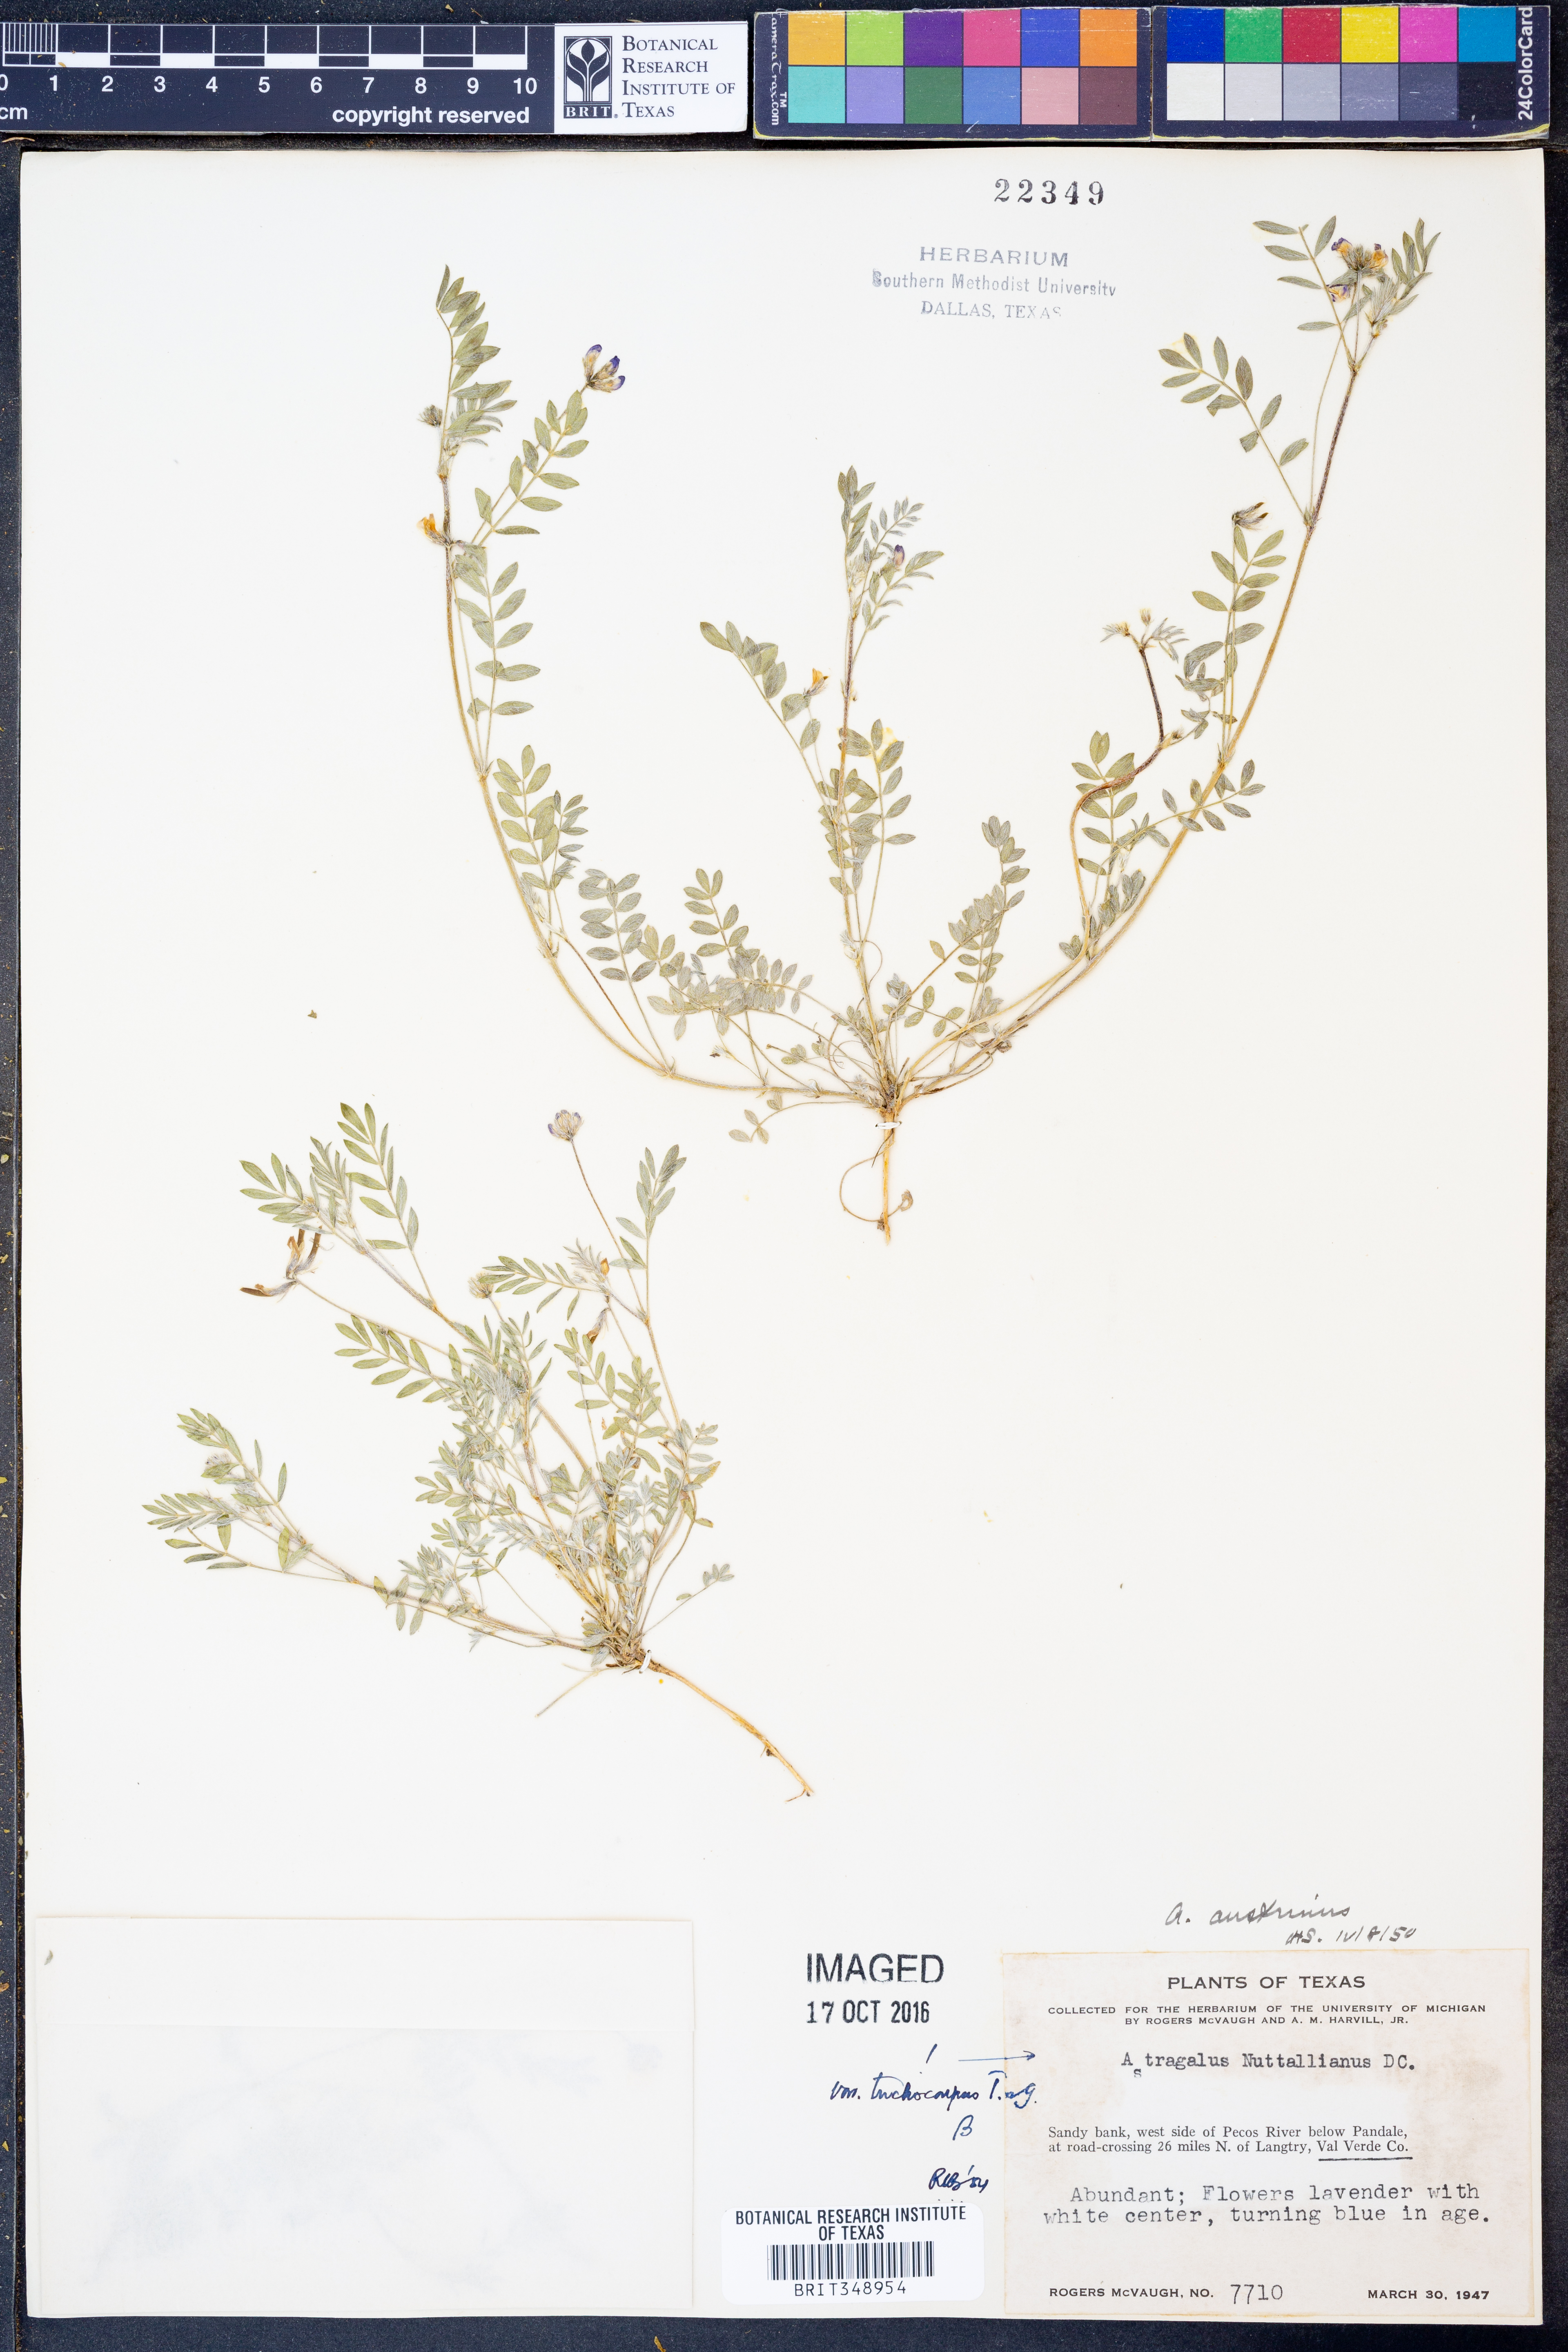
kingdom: Plantae
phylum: Tracheophyta
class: Magnoliopsida
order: Fabales
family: Fabaceae
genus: Astragalus
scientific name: Astragalus nuttallianus
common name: Smallflowered milkvetch
